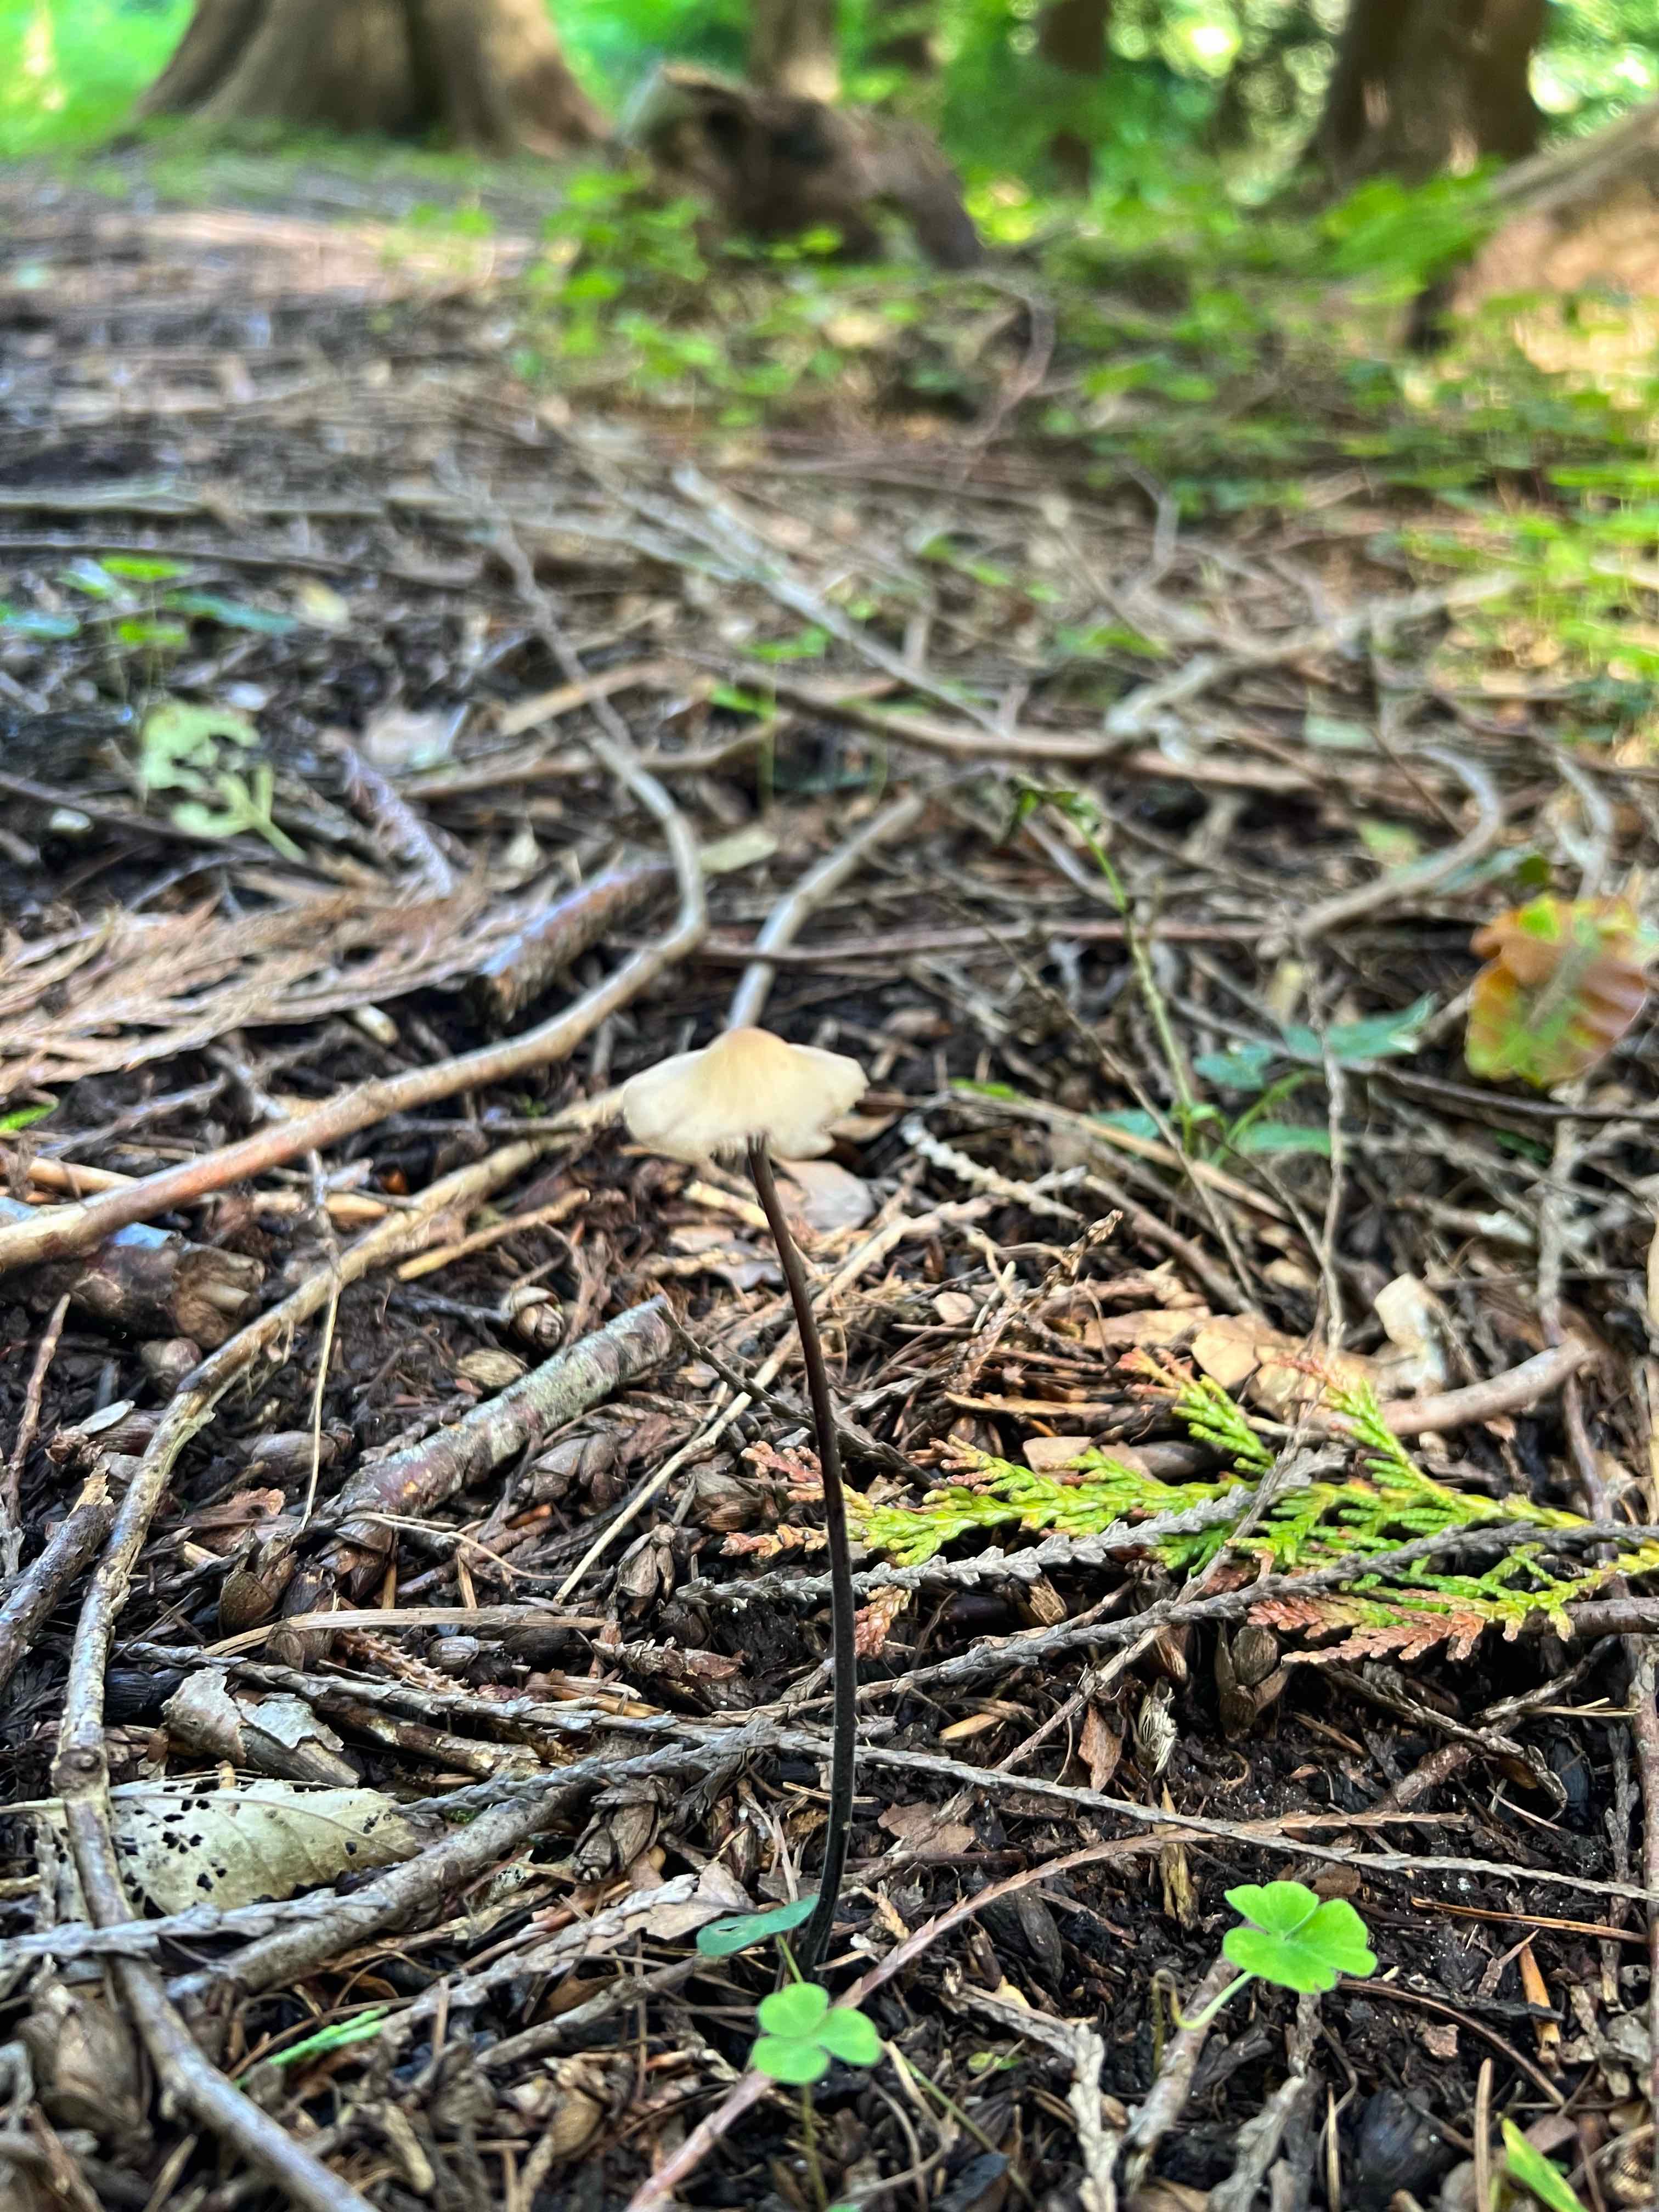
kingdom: Fungi
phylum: Basidiomycota
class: Agaricomycetes
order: Agaricales
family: Omphalotaceae
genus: Mycetinis
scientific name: Mycetinis alliaceus
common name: stor løghat
